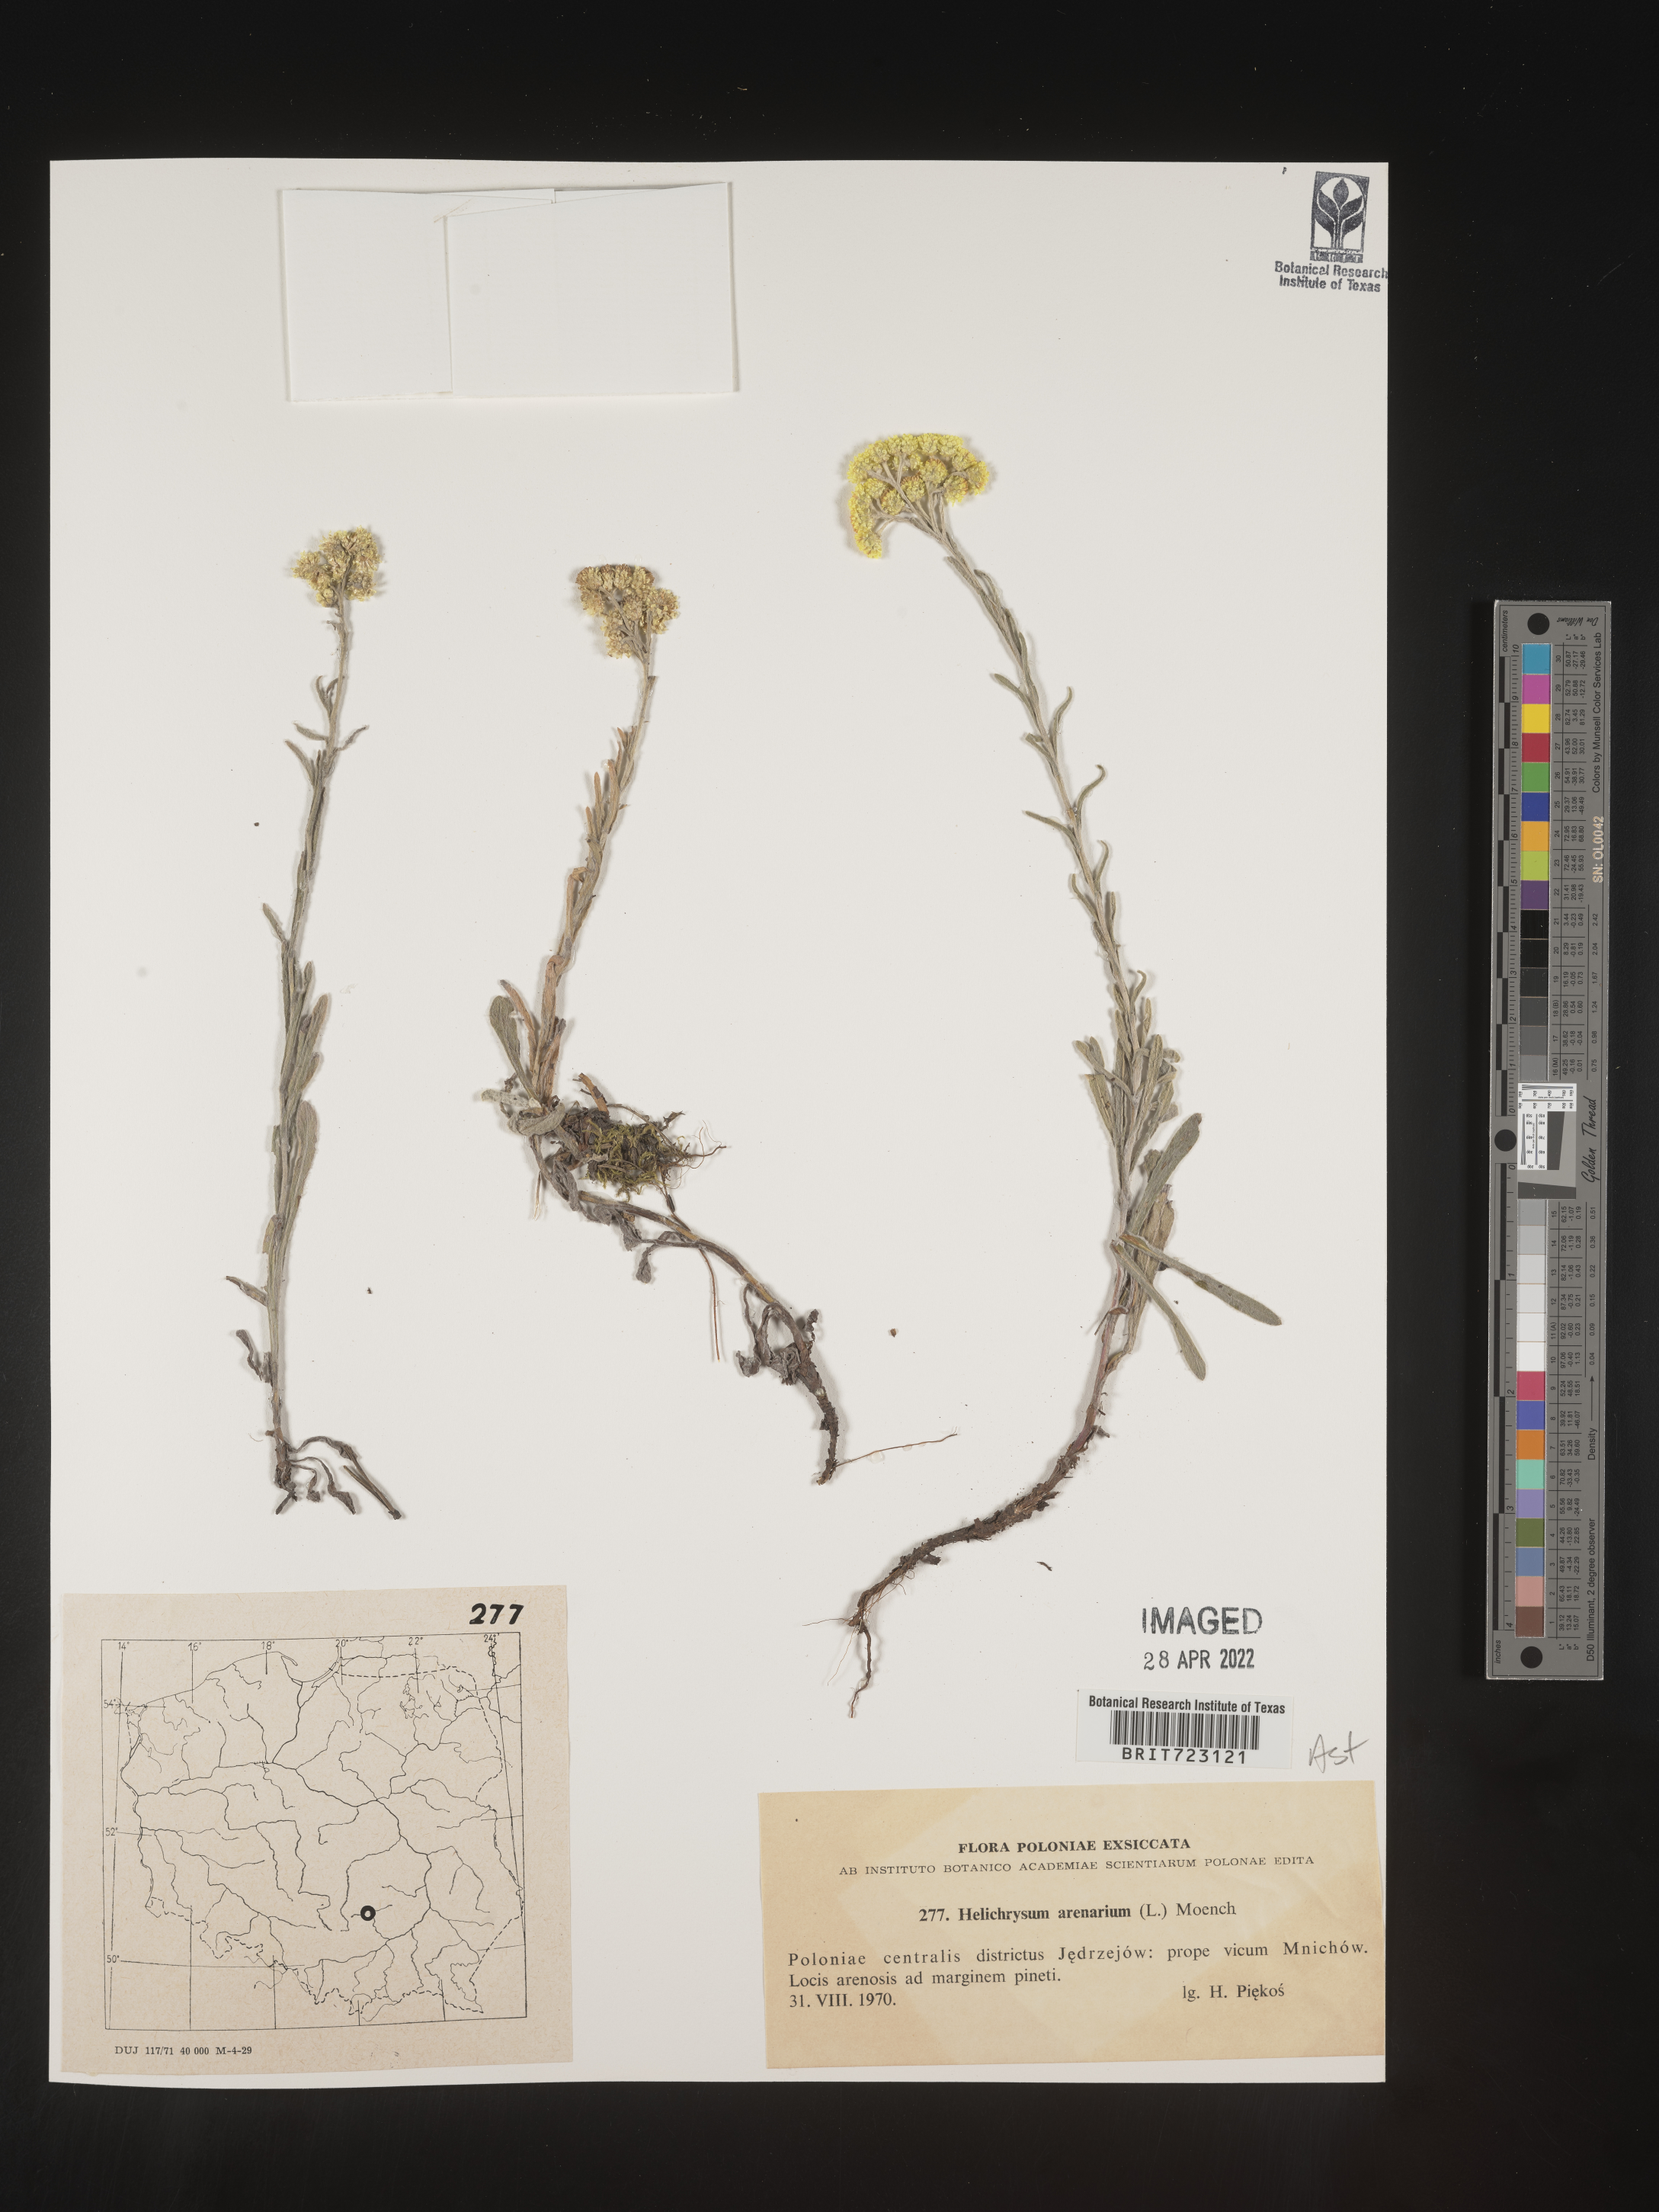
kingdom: Plantae
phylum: Tracheophyta
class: Magnoliopsida
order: Asterales
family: Asteraceae
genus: Helichrysum
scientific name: Helichrysum arenarium
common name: Strawflower
